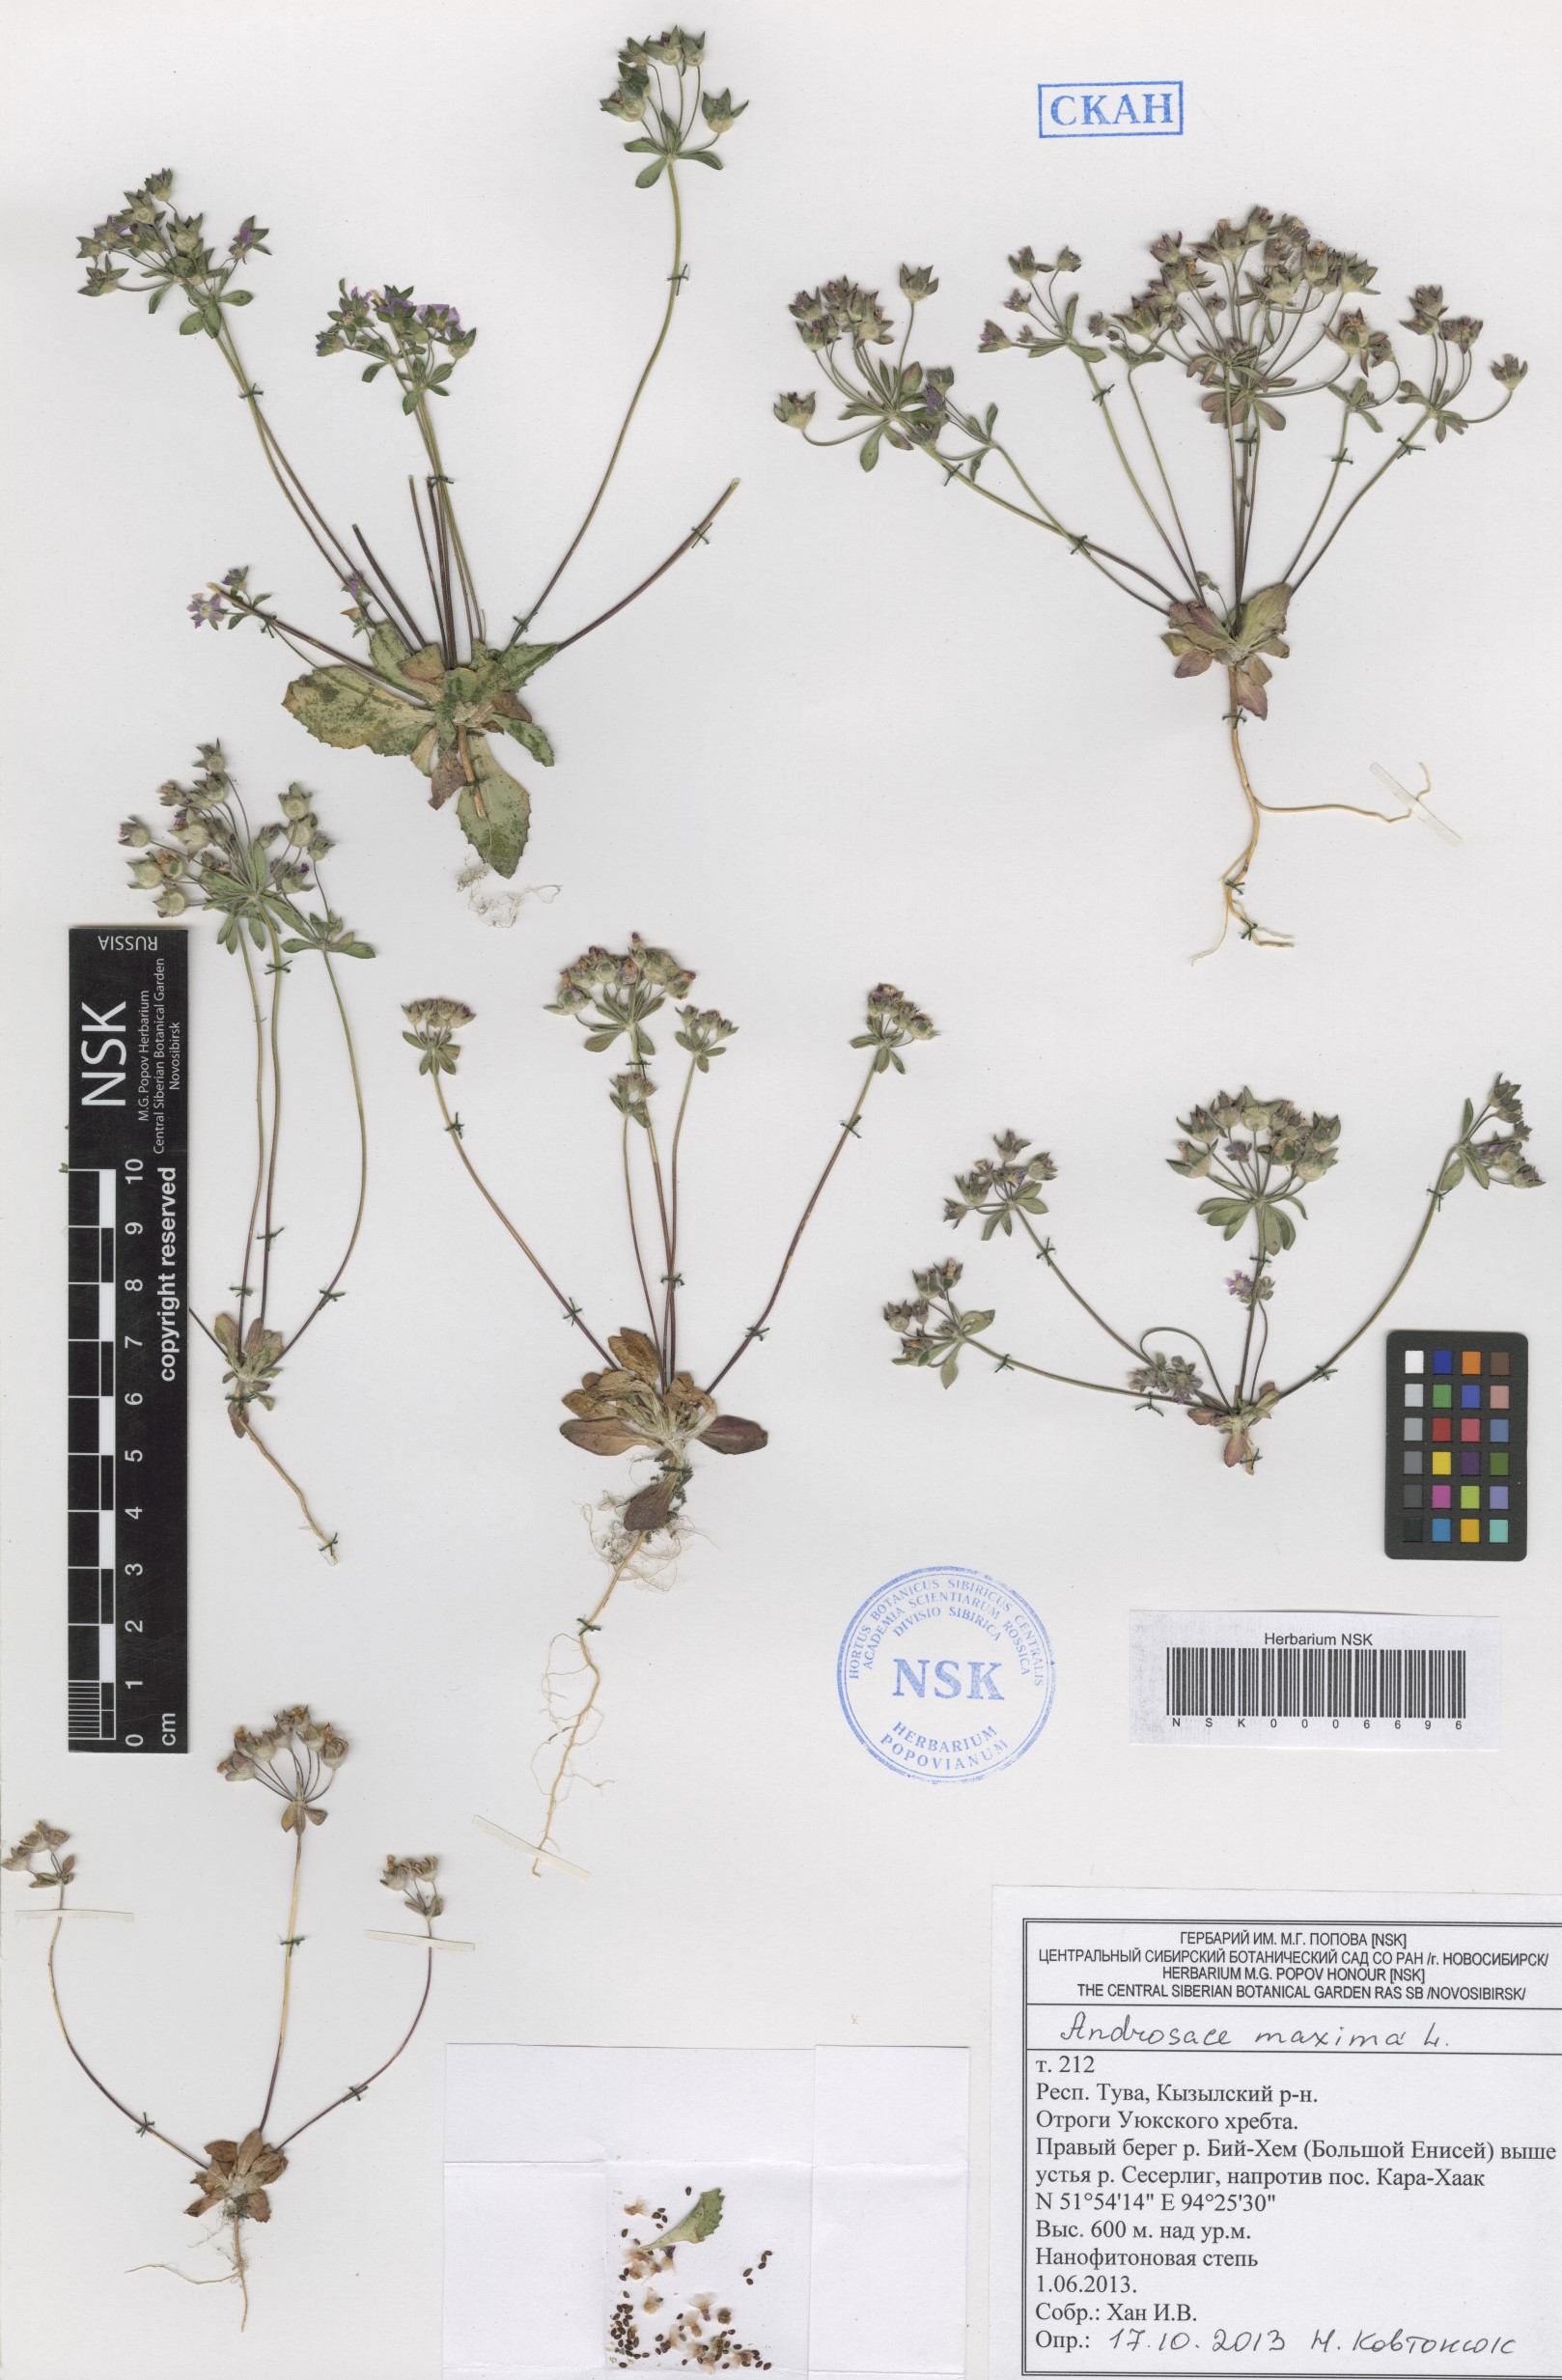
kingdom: Plantae
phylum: Tracheophyta
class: Magnoliopsida
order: Ericales
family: Primulaceae
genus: Androsace
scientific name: Androsace maxima
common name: Annual androsace
